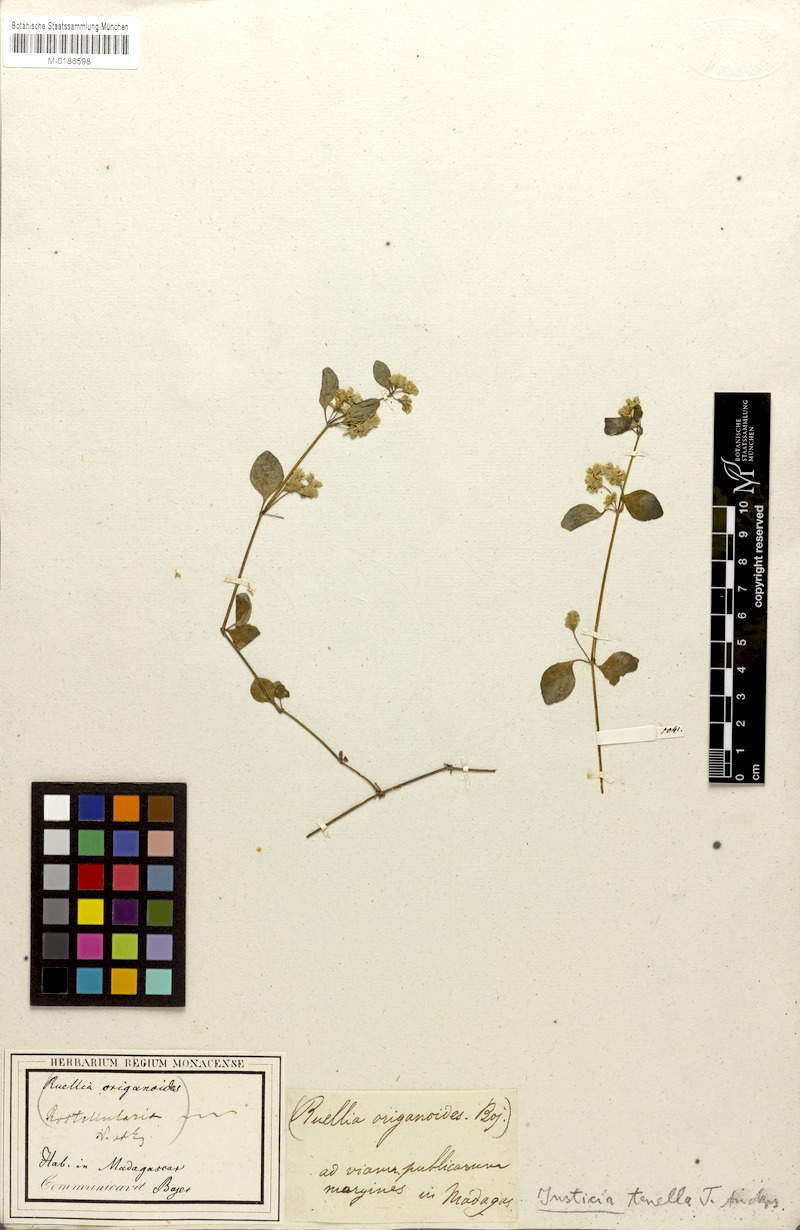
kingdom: Plantae
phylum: Tracheophyta
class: Magnoliopsida
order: Lamiales
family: Acanthaceae
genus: Anisostachya
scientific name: Anisostachya tenella
